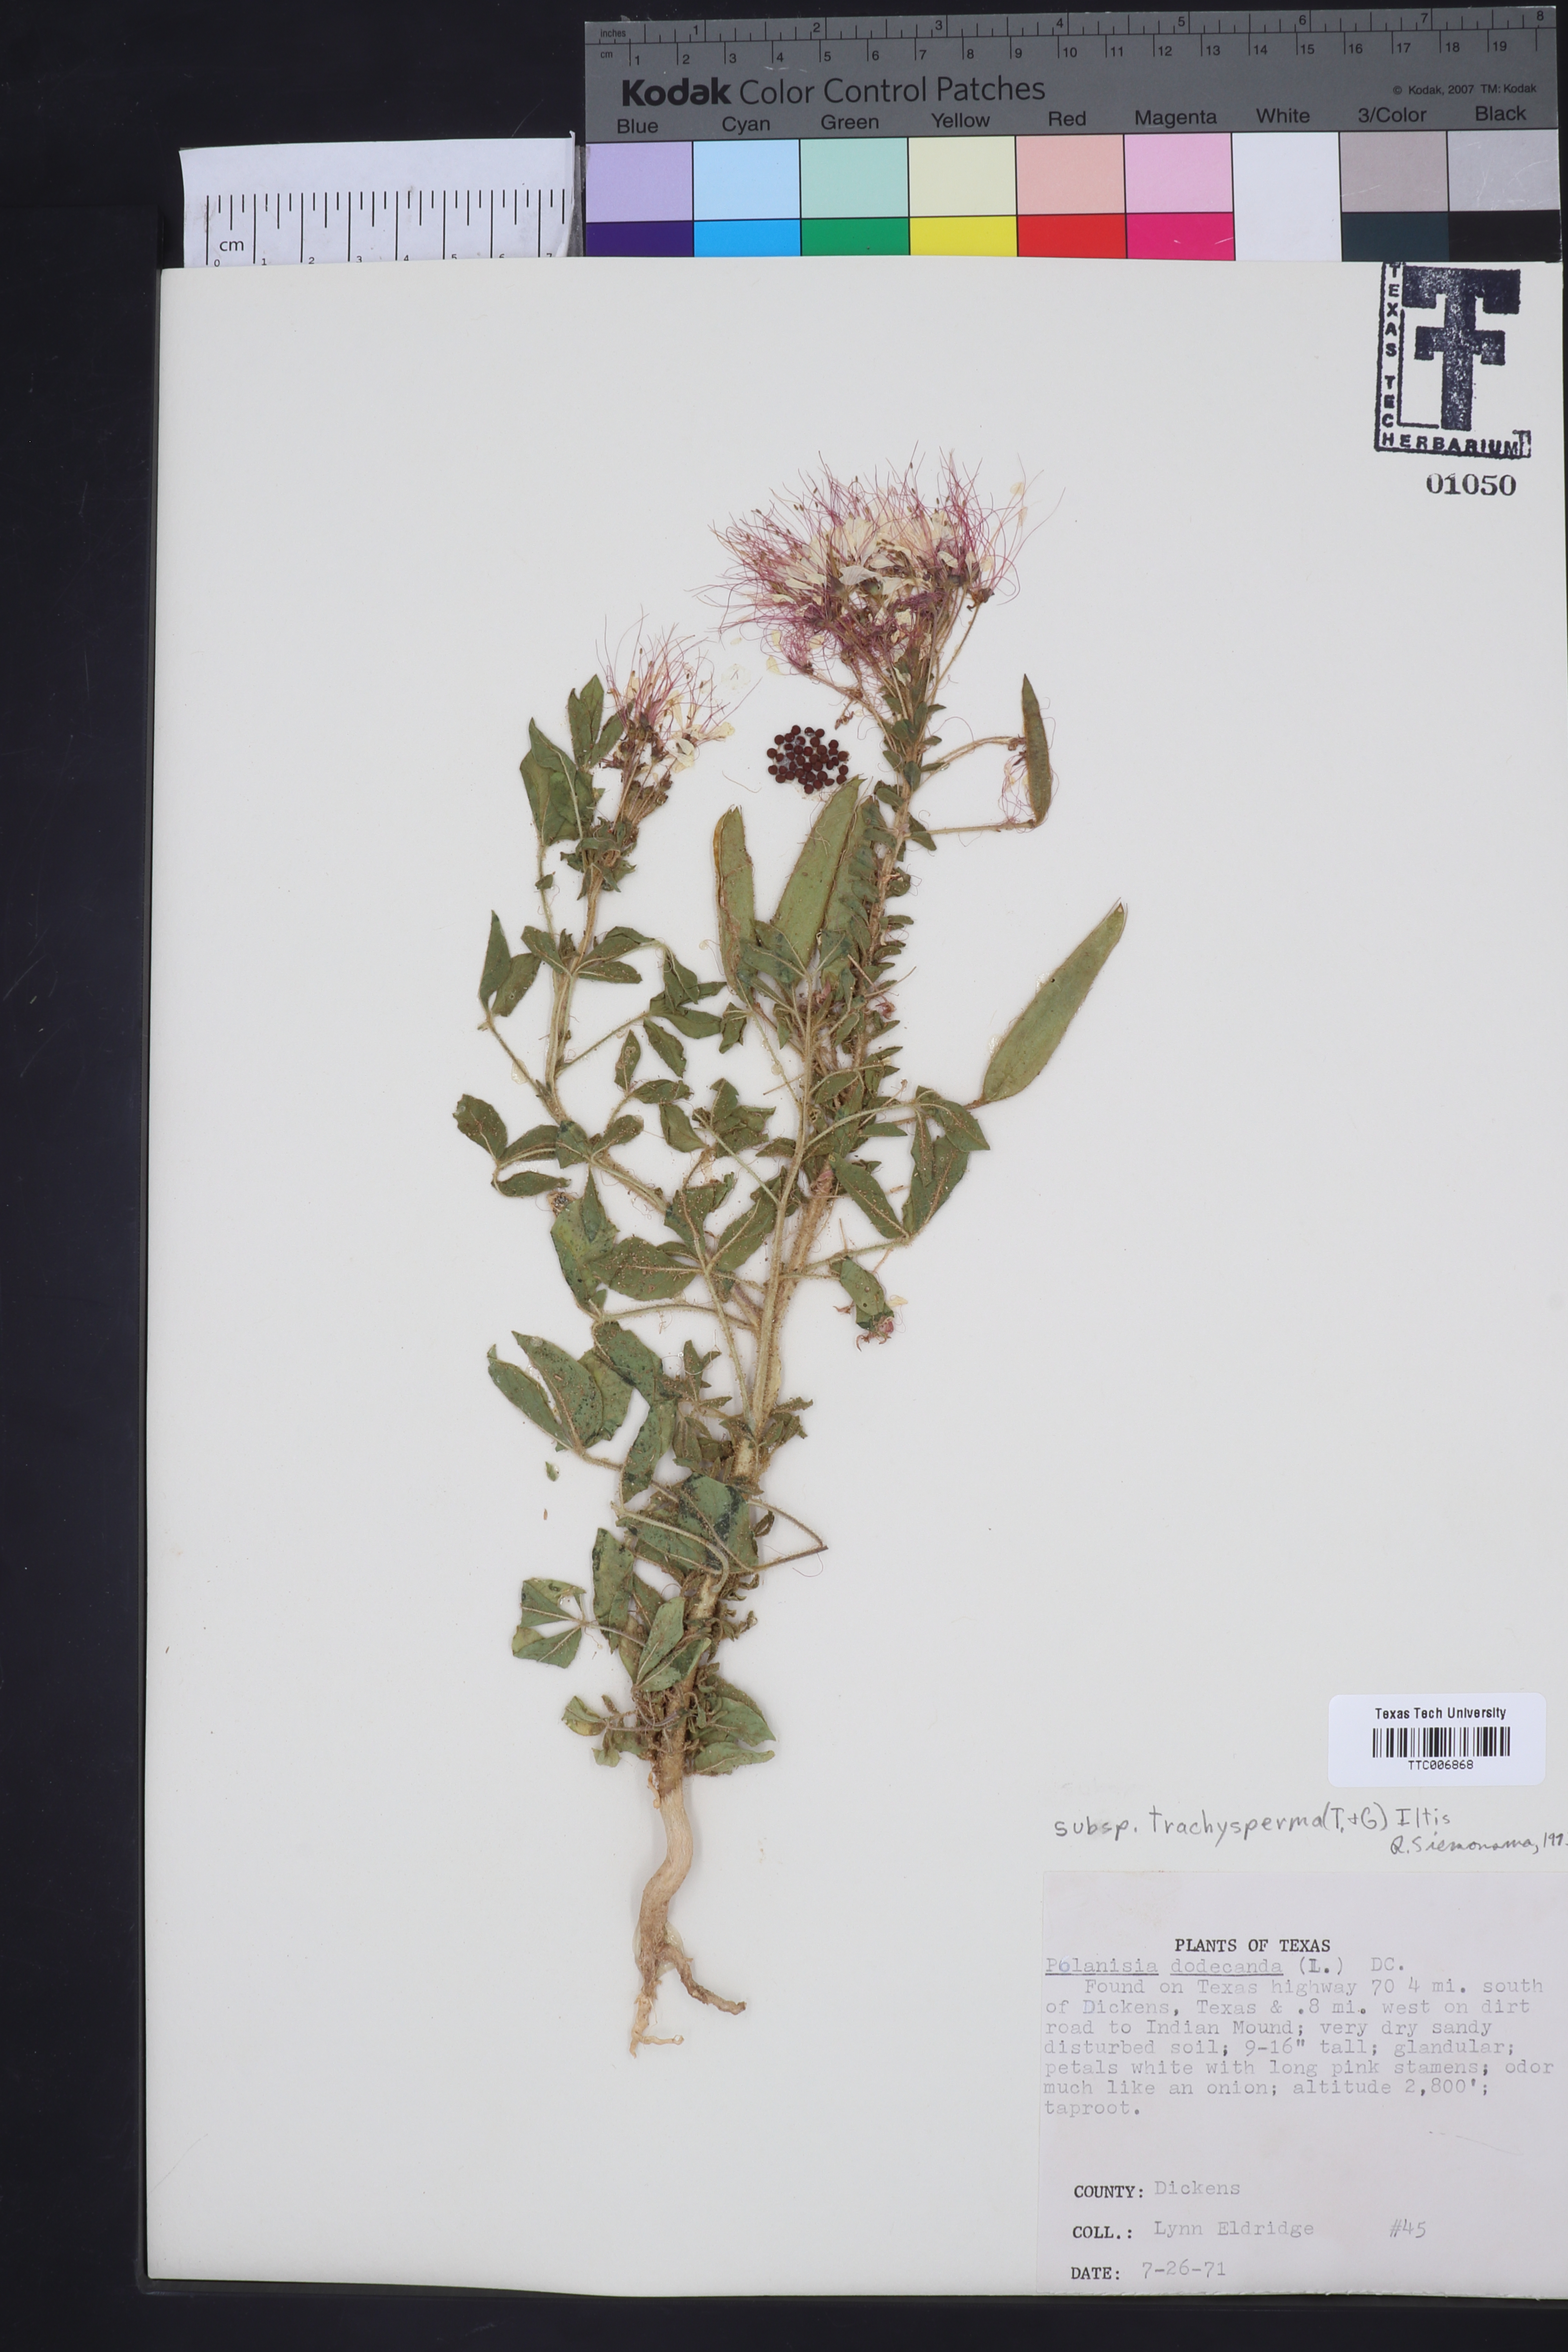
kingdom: Plantae
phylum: Tracheophyta
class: Magnoliopsida
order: Brassicales
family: Cleomaceae
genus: Polanisia
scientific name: Polanisia trachysperma
